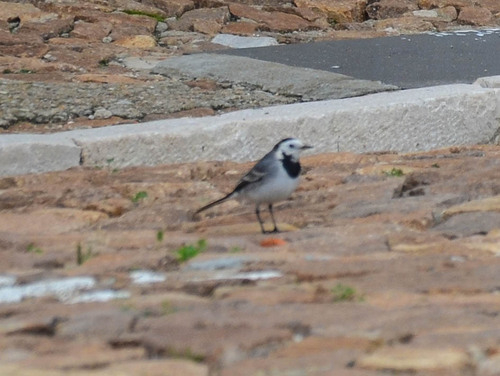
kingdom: Animalia
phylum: Chordata
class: Aves
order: Passeriformes
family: Motacillidae
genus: Motacilla
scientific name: Motacilla alba
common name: White wagtail
